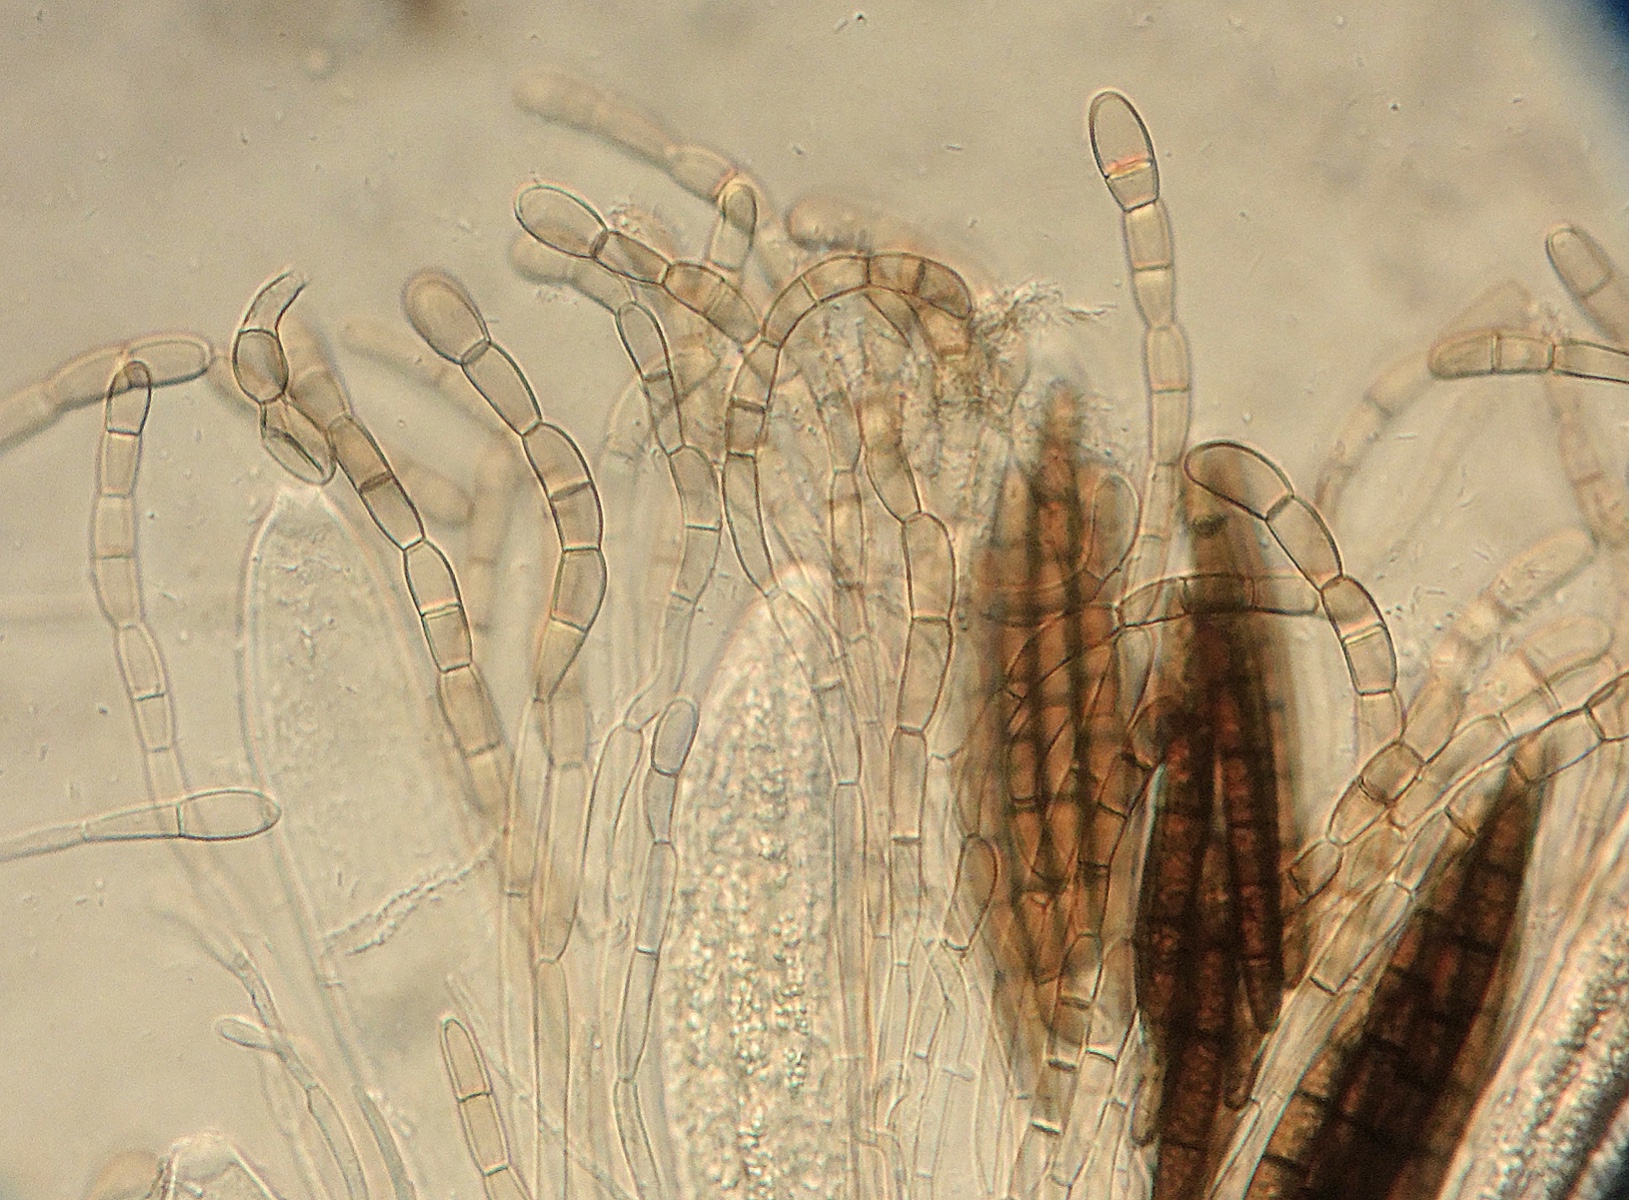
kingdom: Fungi
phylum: Ascomycota
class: Geoglossomycetes
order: Geoglossales
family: Geoglossaceae
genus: Geoglossum
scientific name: Geoglossum simile
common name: kær-jordtunge
